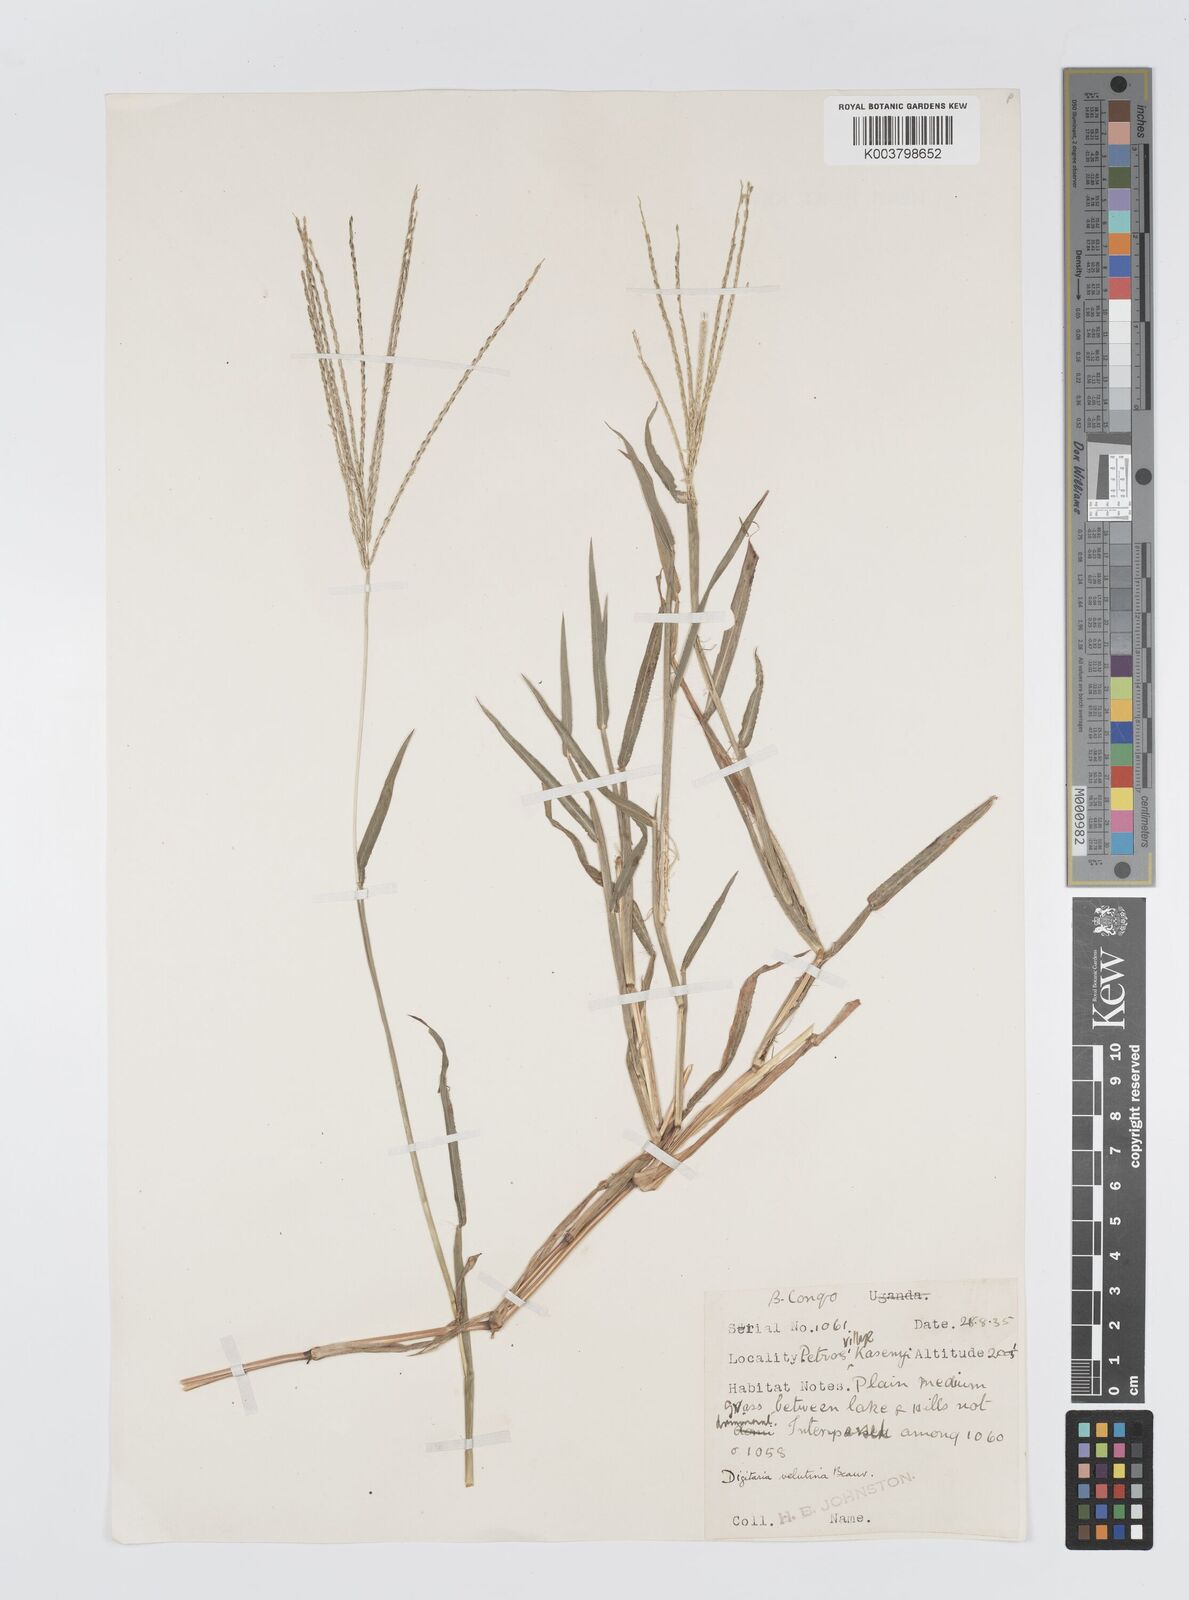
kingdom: Plantae
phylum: Tracheophyta
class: Liliopsida
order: Poales
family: Poaceae
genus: Digitaria
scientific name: Digitaria milanjiana
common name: Madagascar crabgrass
